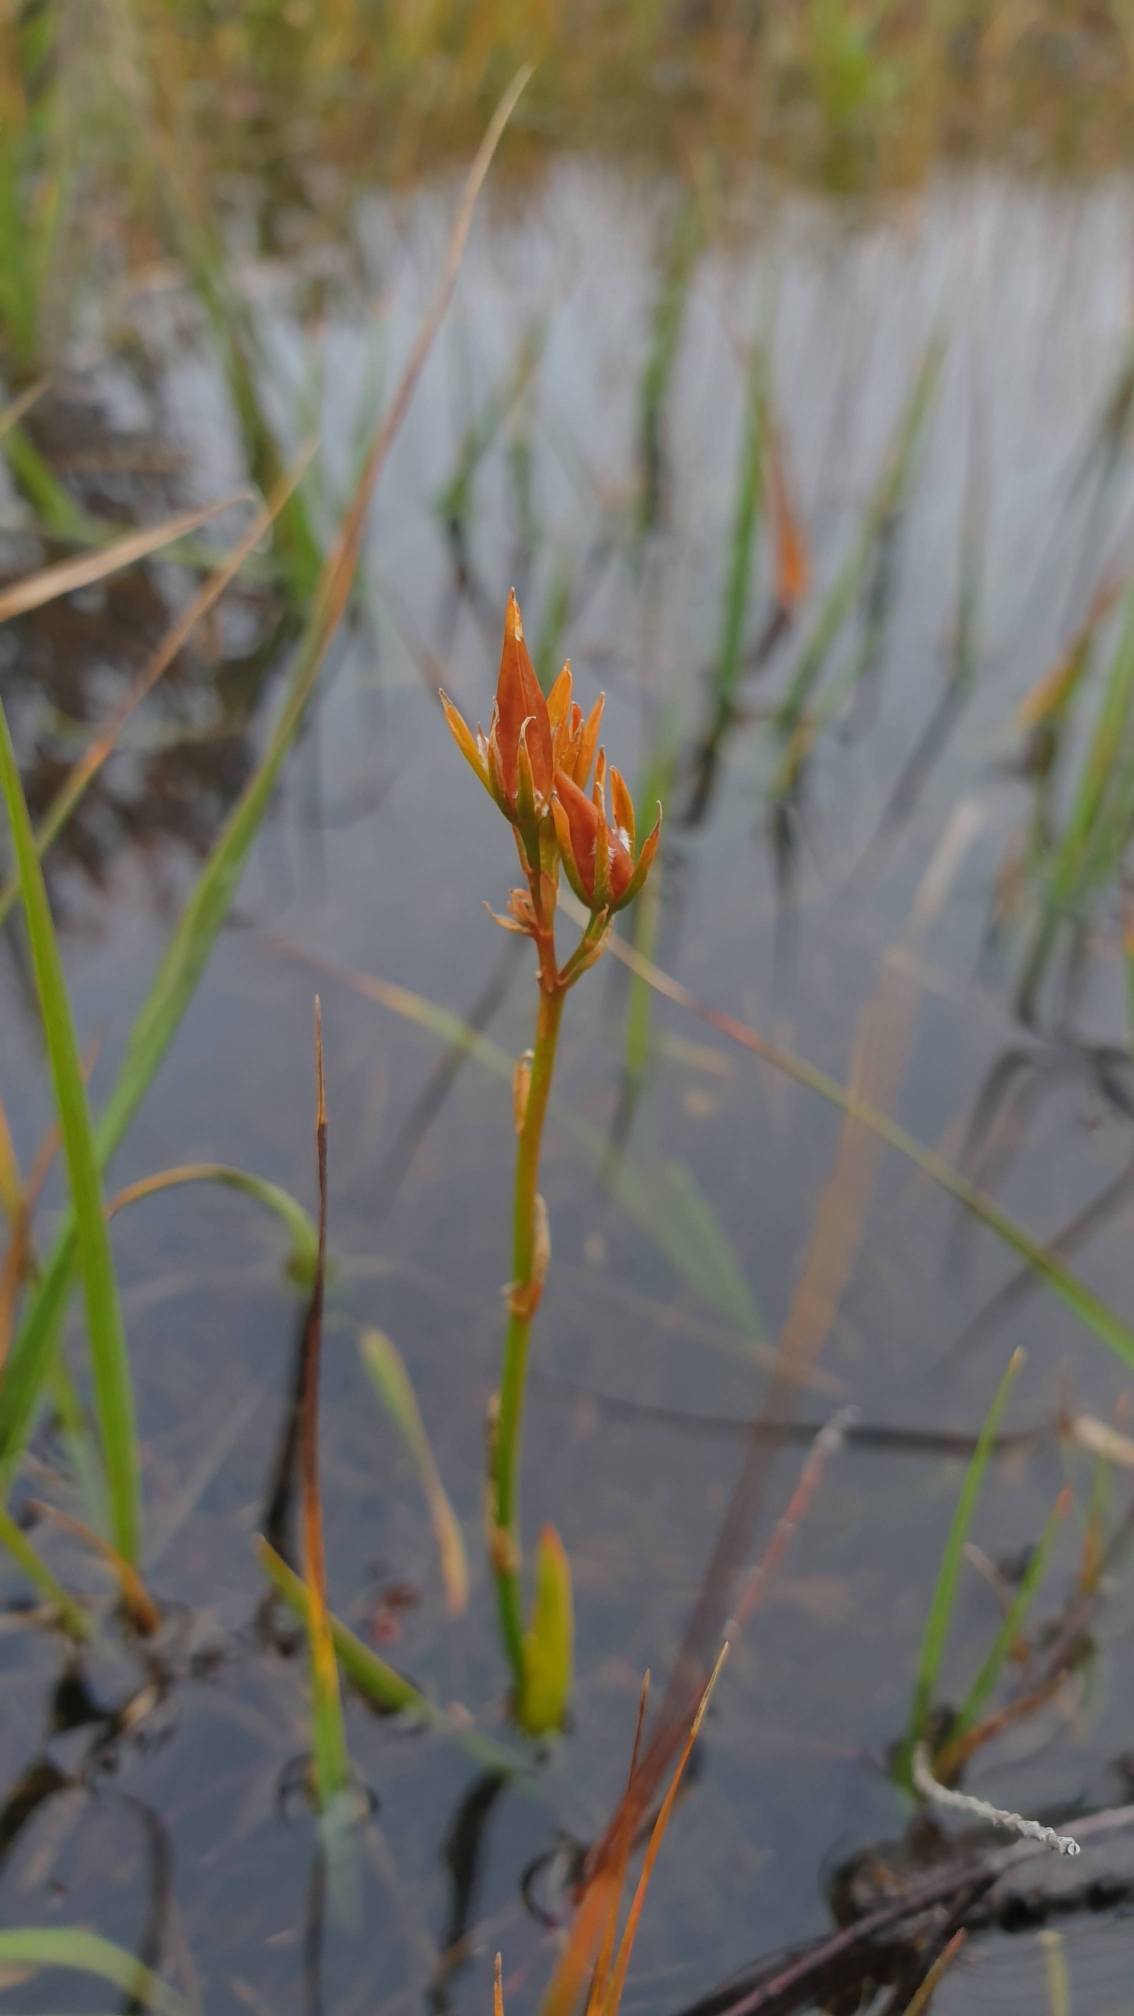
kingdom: Plantae
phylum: Tracheophyta
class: Liliopsida
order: Dioscoreales
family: Nartheciaceae
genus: Narthecium
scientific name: Narthecium ossifragum
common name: Benbræk
